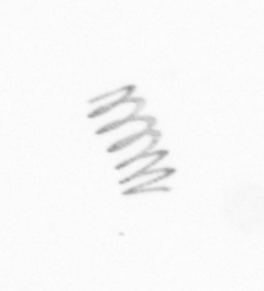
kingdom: Chromista
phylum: Ochrophyta
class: Bacillariophyceae
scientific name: Bacillariophyceae
